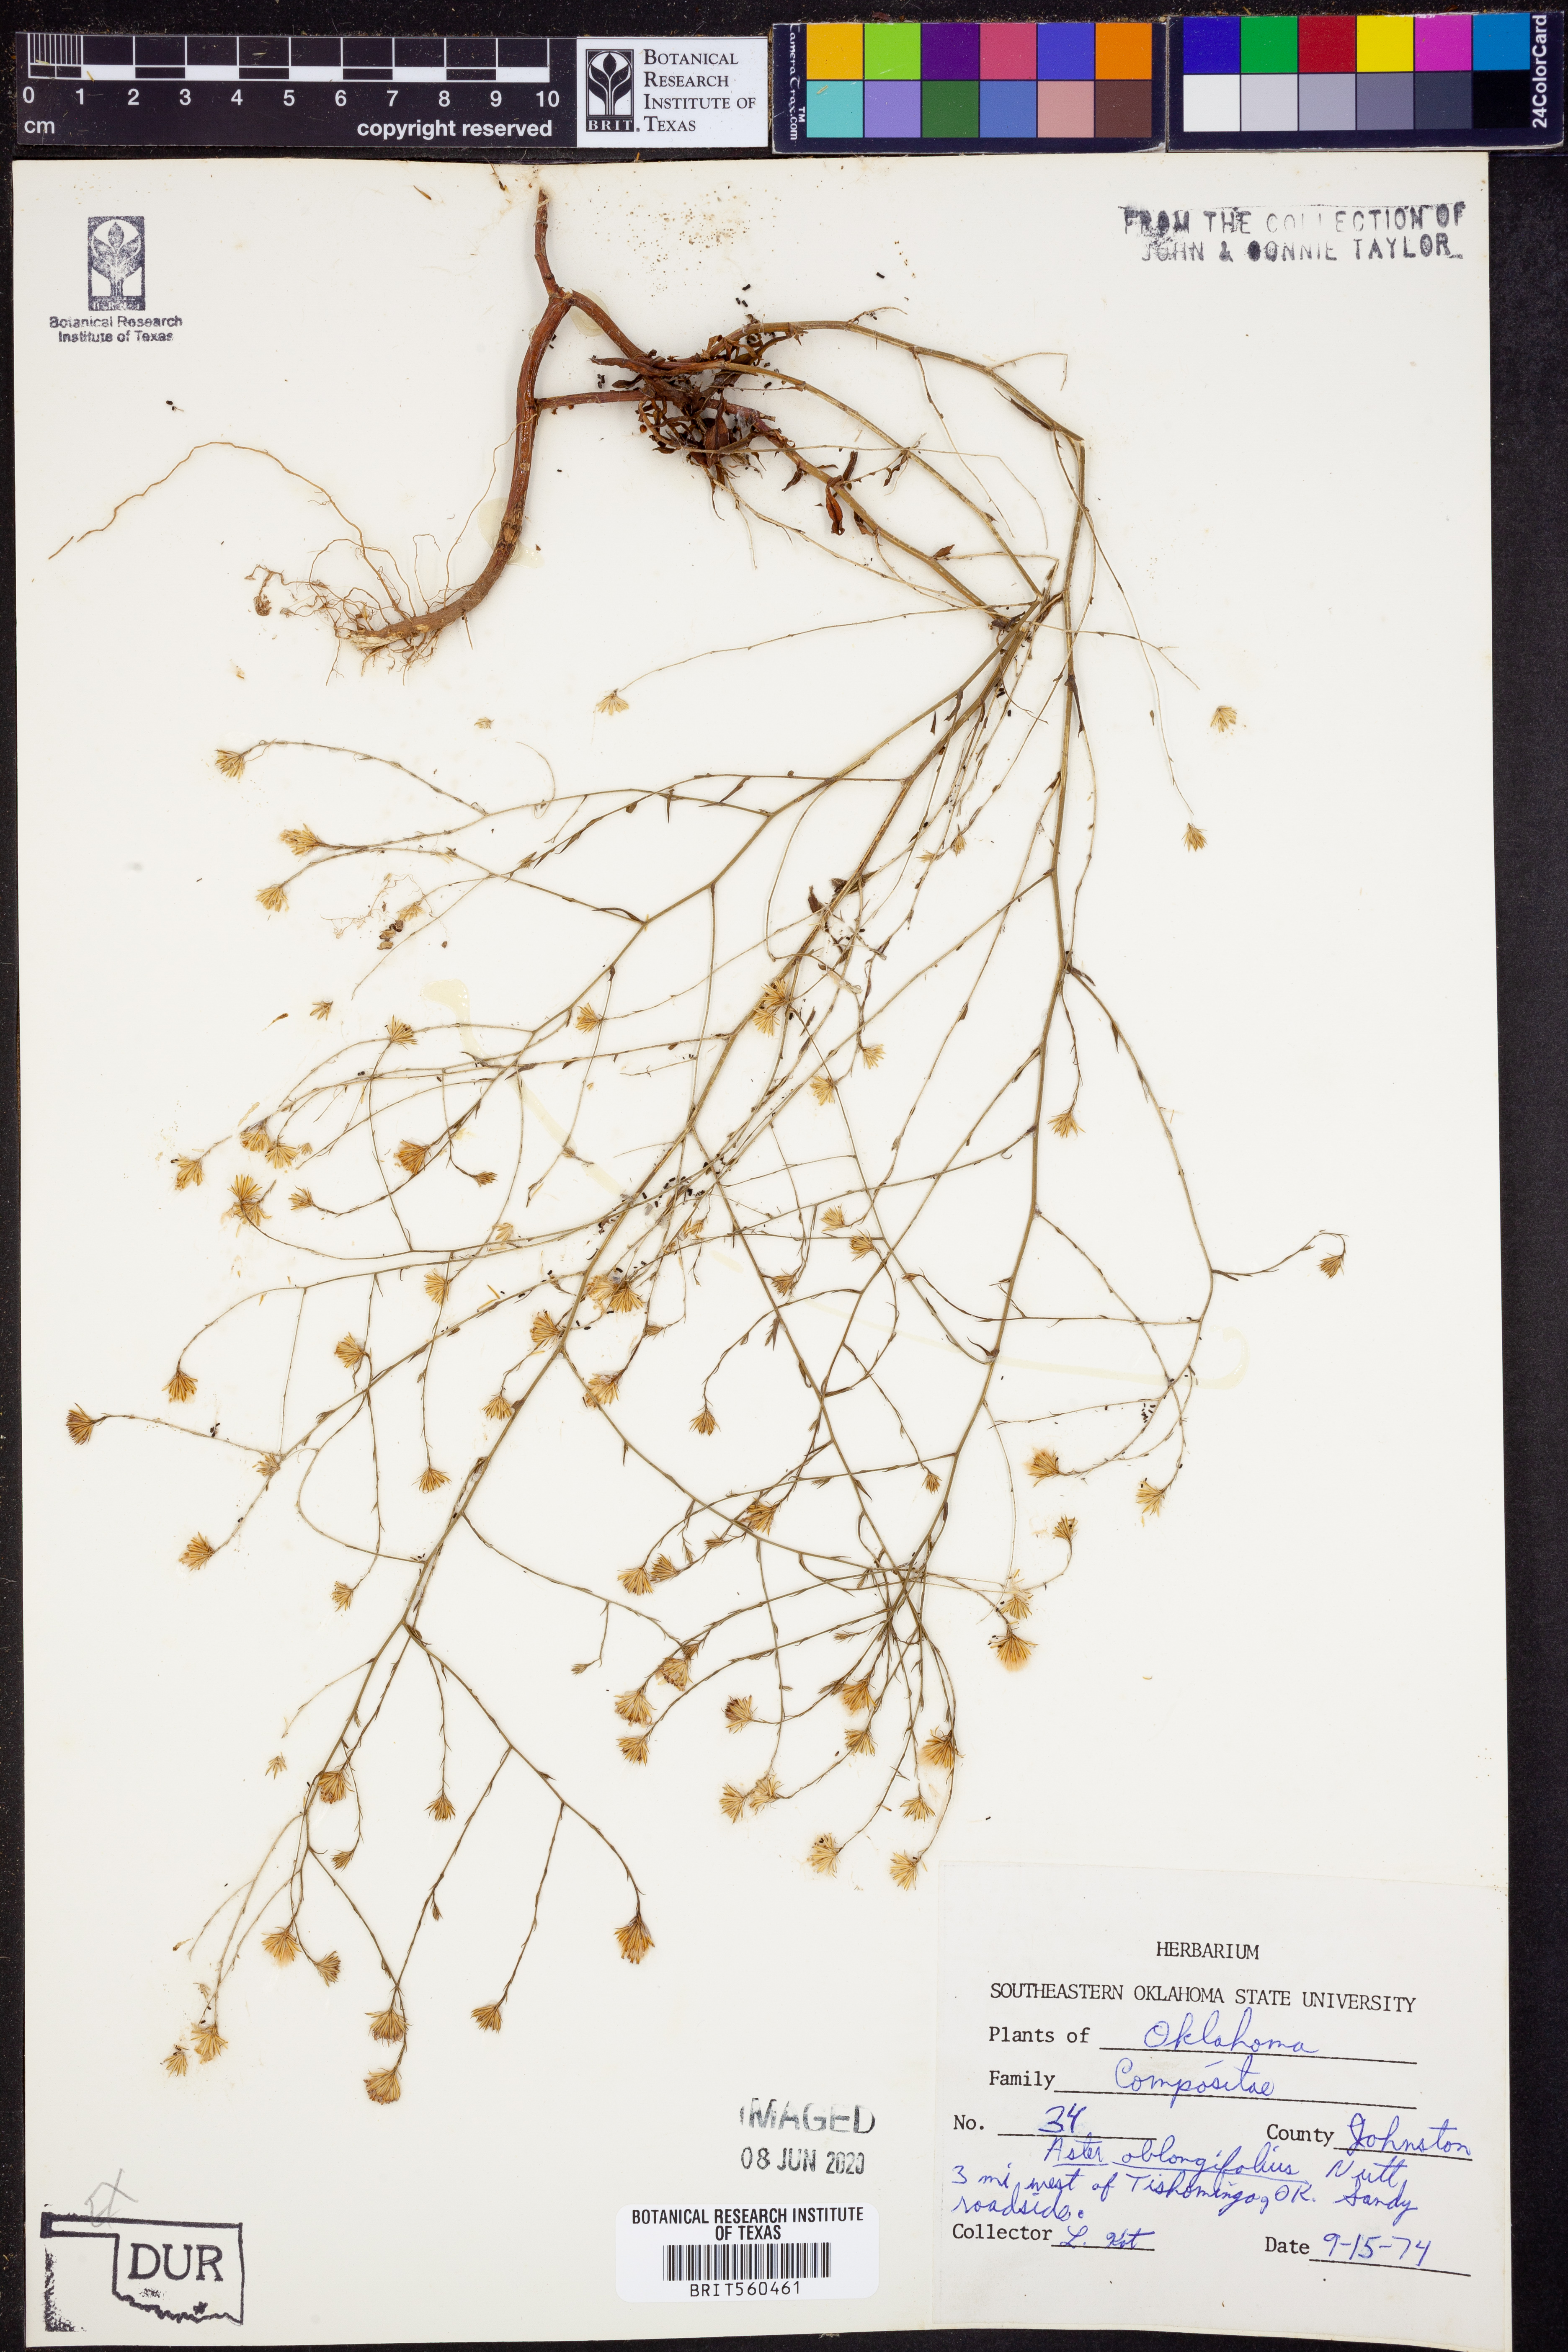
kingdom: Plantae
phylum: Tracheophyta
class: Magnoliopsida
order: Asterales
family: Asteraceae
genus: Symphyotrichum
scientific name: Symphyotrichum oblongifolium
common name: Aromatic aster
